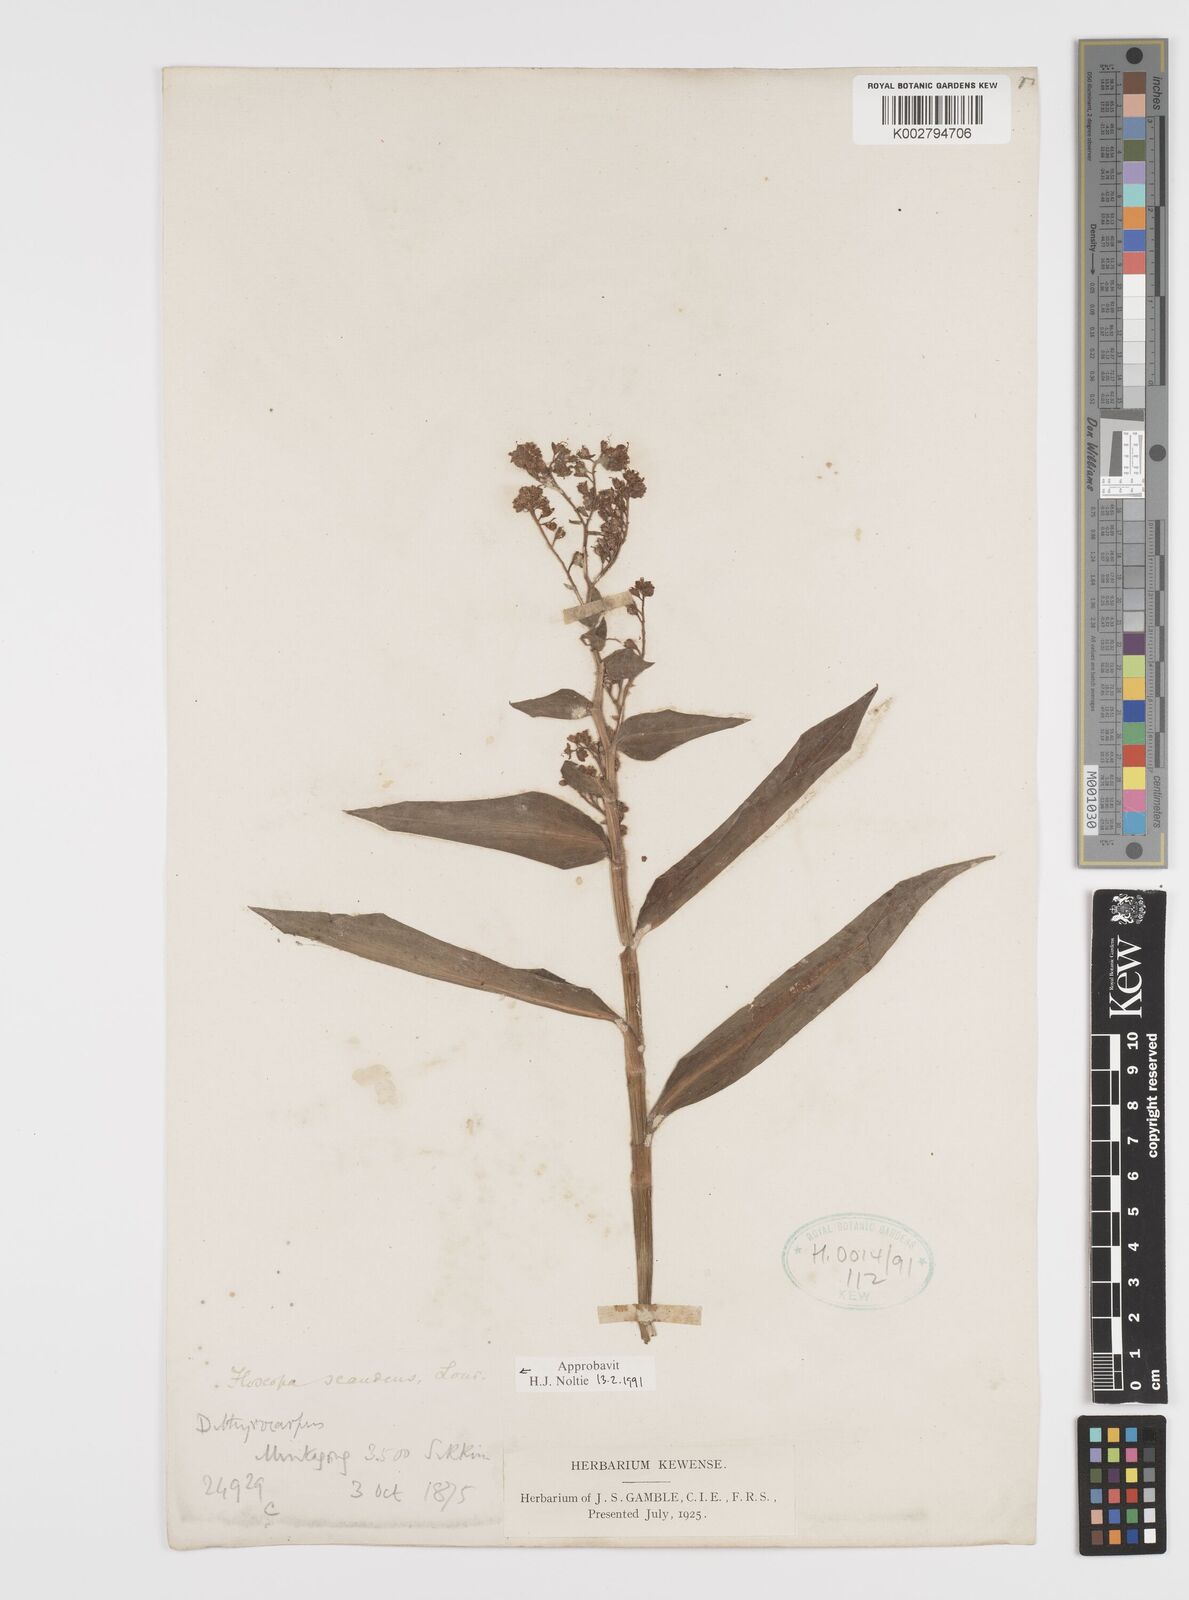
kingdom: Plantae
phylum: Tracheophyta
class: Liliopsida
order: Commelinales
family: Commelinaceae
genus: Floscopa
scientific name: Floscopa scandens
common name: Climbing flower cup
